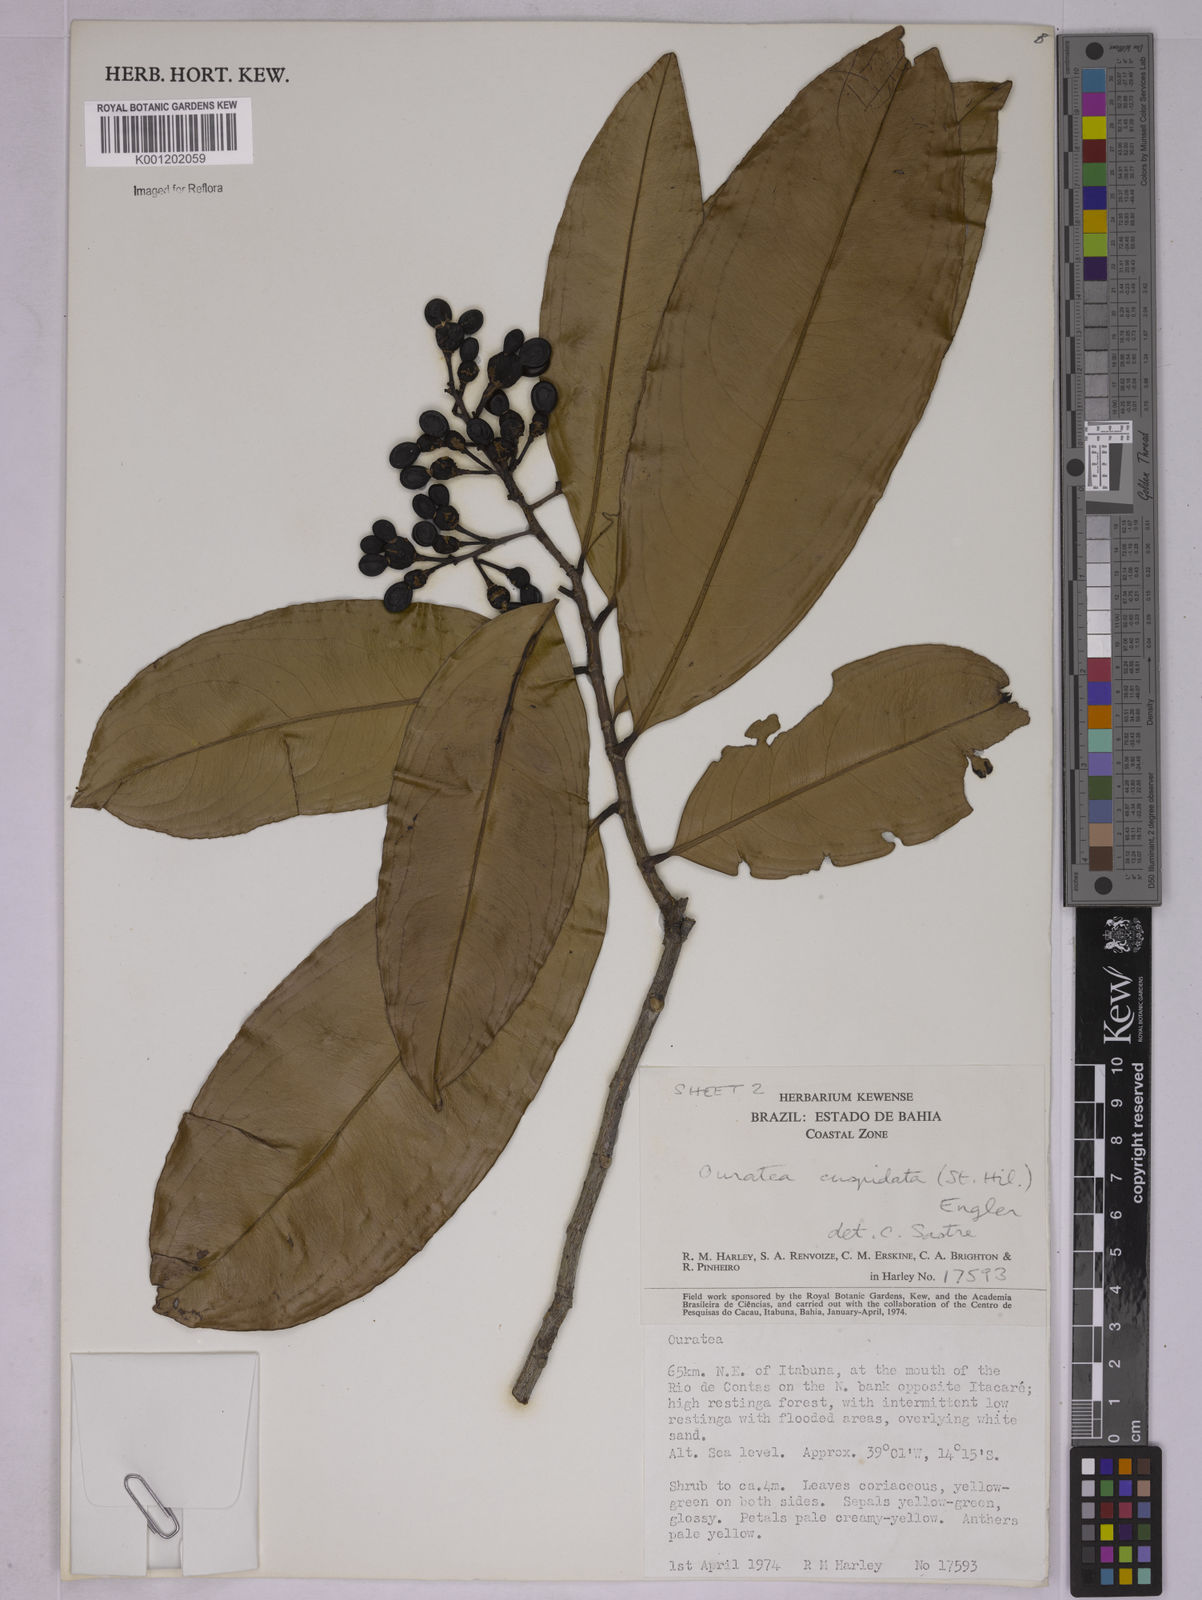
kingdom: Plantae
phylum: Tracheophyta
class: Magnoliopsida
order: Malpighiales
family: Ochnaceae
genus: Ouratea
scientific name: Ouratea cuspidata
